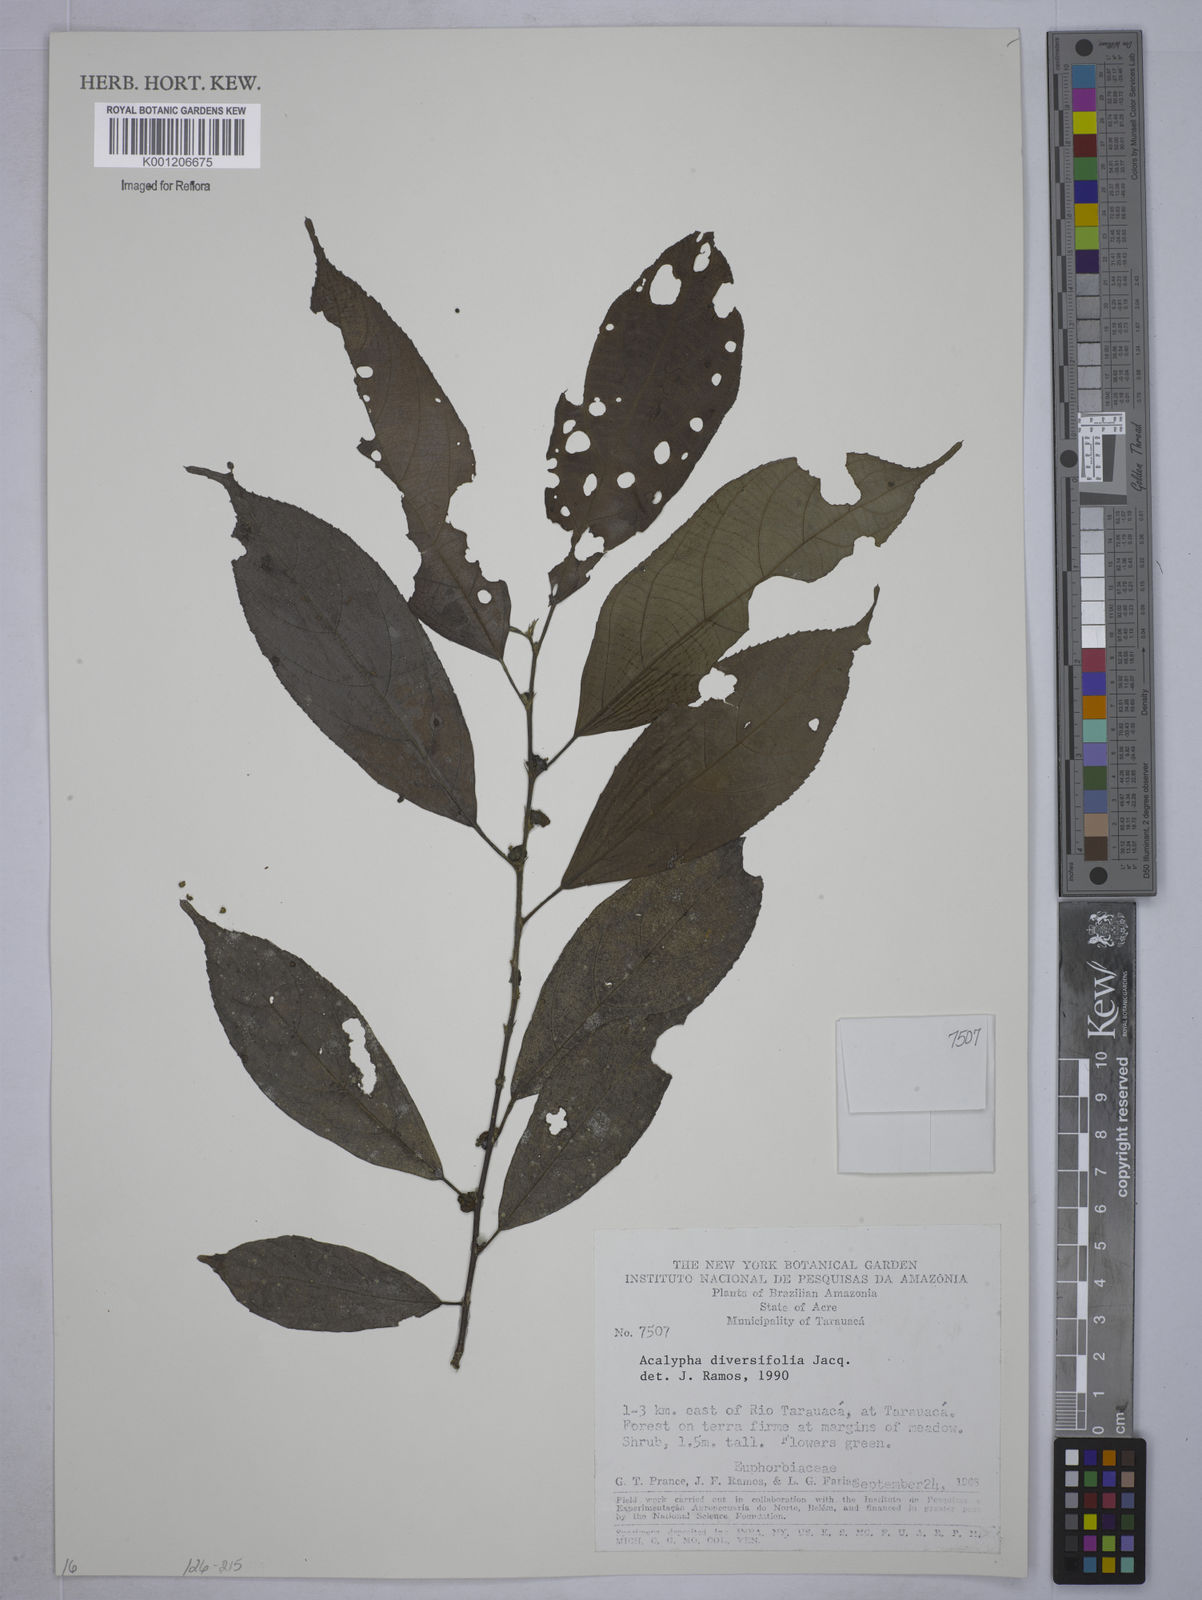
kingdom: Plantae
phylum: Tracheophyta
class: Magnoliopsida
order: Malpighiales
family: Euphorbiaceae
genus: Acalypha
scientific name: Acalypha diversifolia
